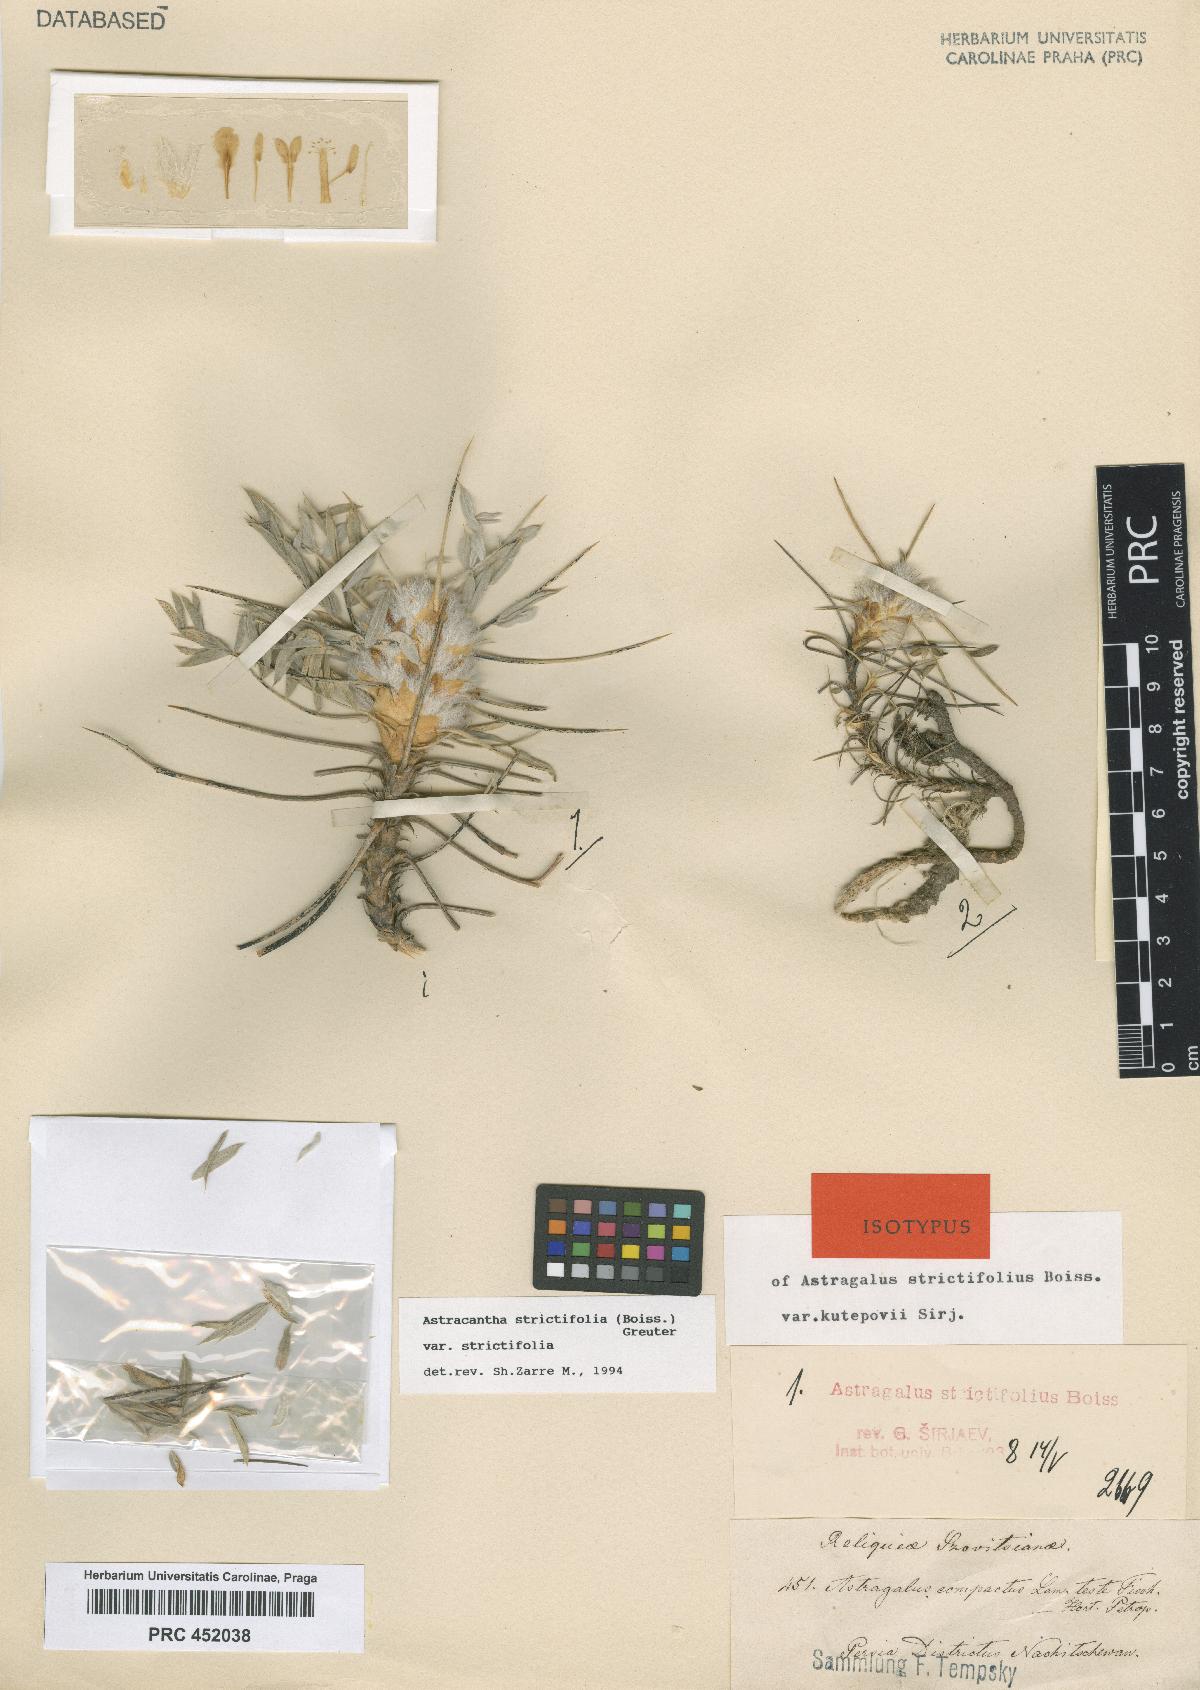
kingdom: Plantae
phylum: Tracheophyta
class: Magnoliopsida
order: Fabales
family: Fabaceae
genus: Astragalus
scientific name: Astragalus compactus
